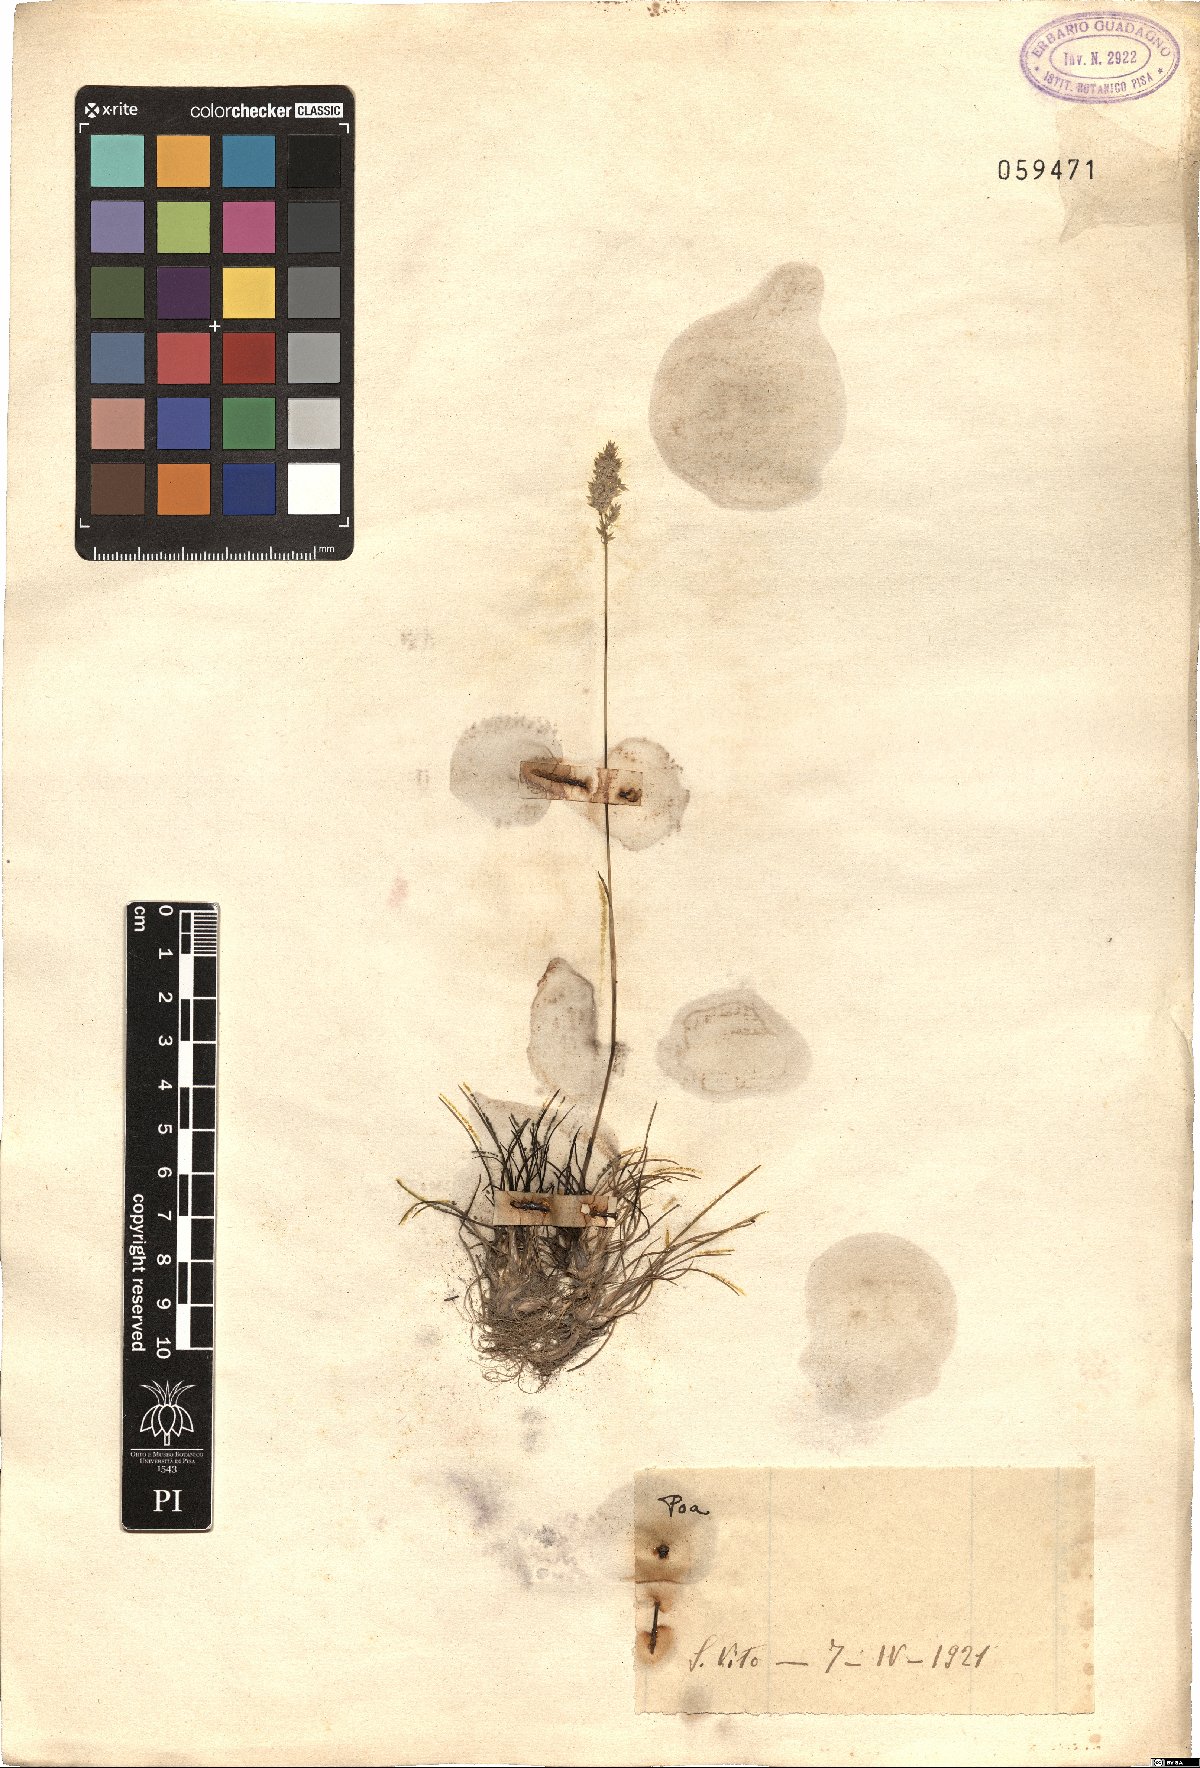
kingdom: Plantae
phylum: Tracheophyta
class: Liliopsida
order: Poales
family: Poaceae
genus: Poa
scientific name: Poa
